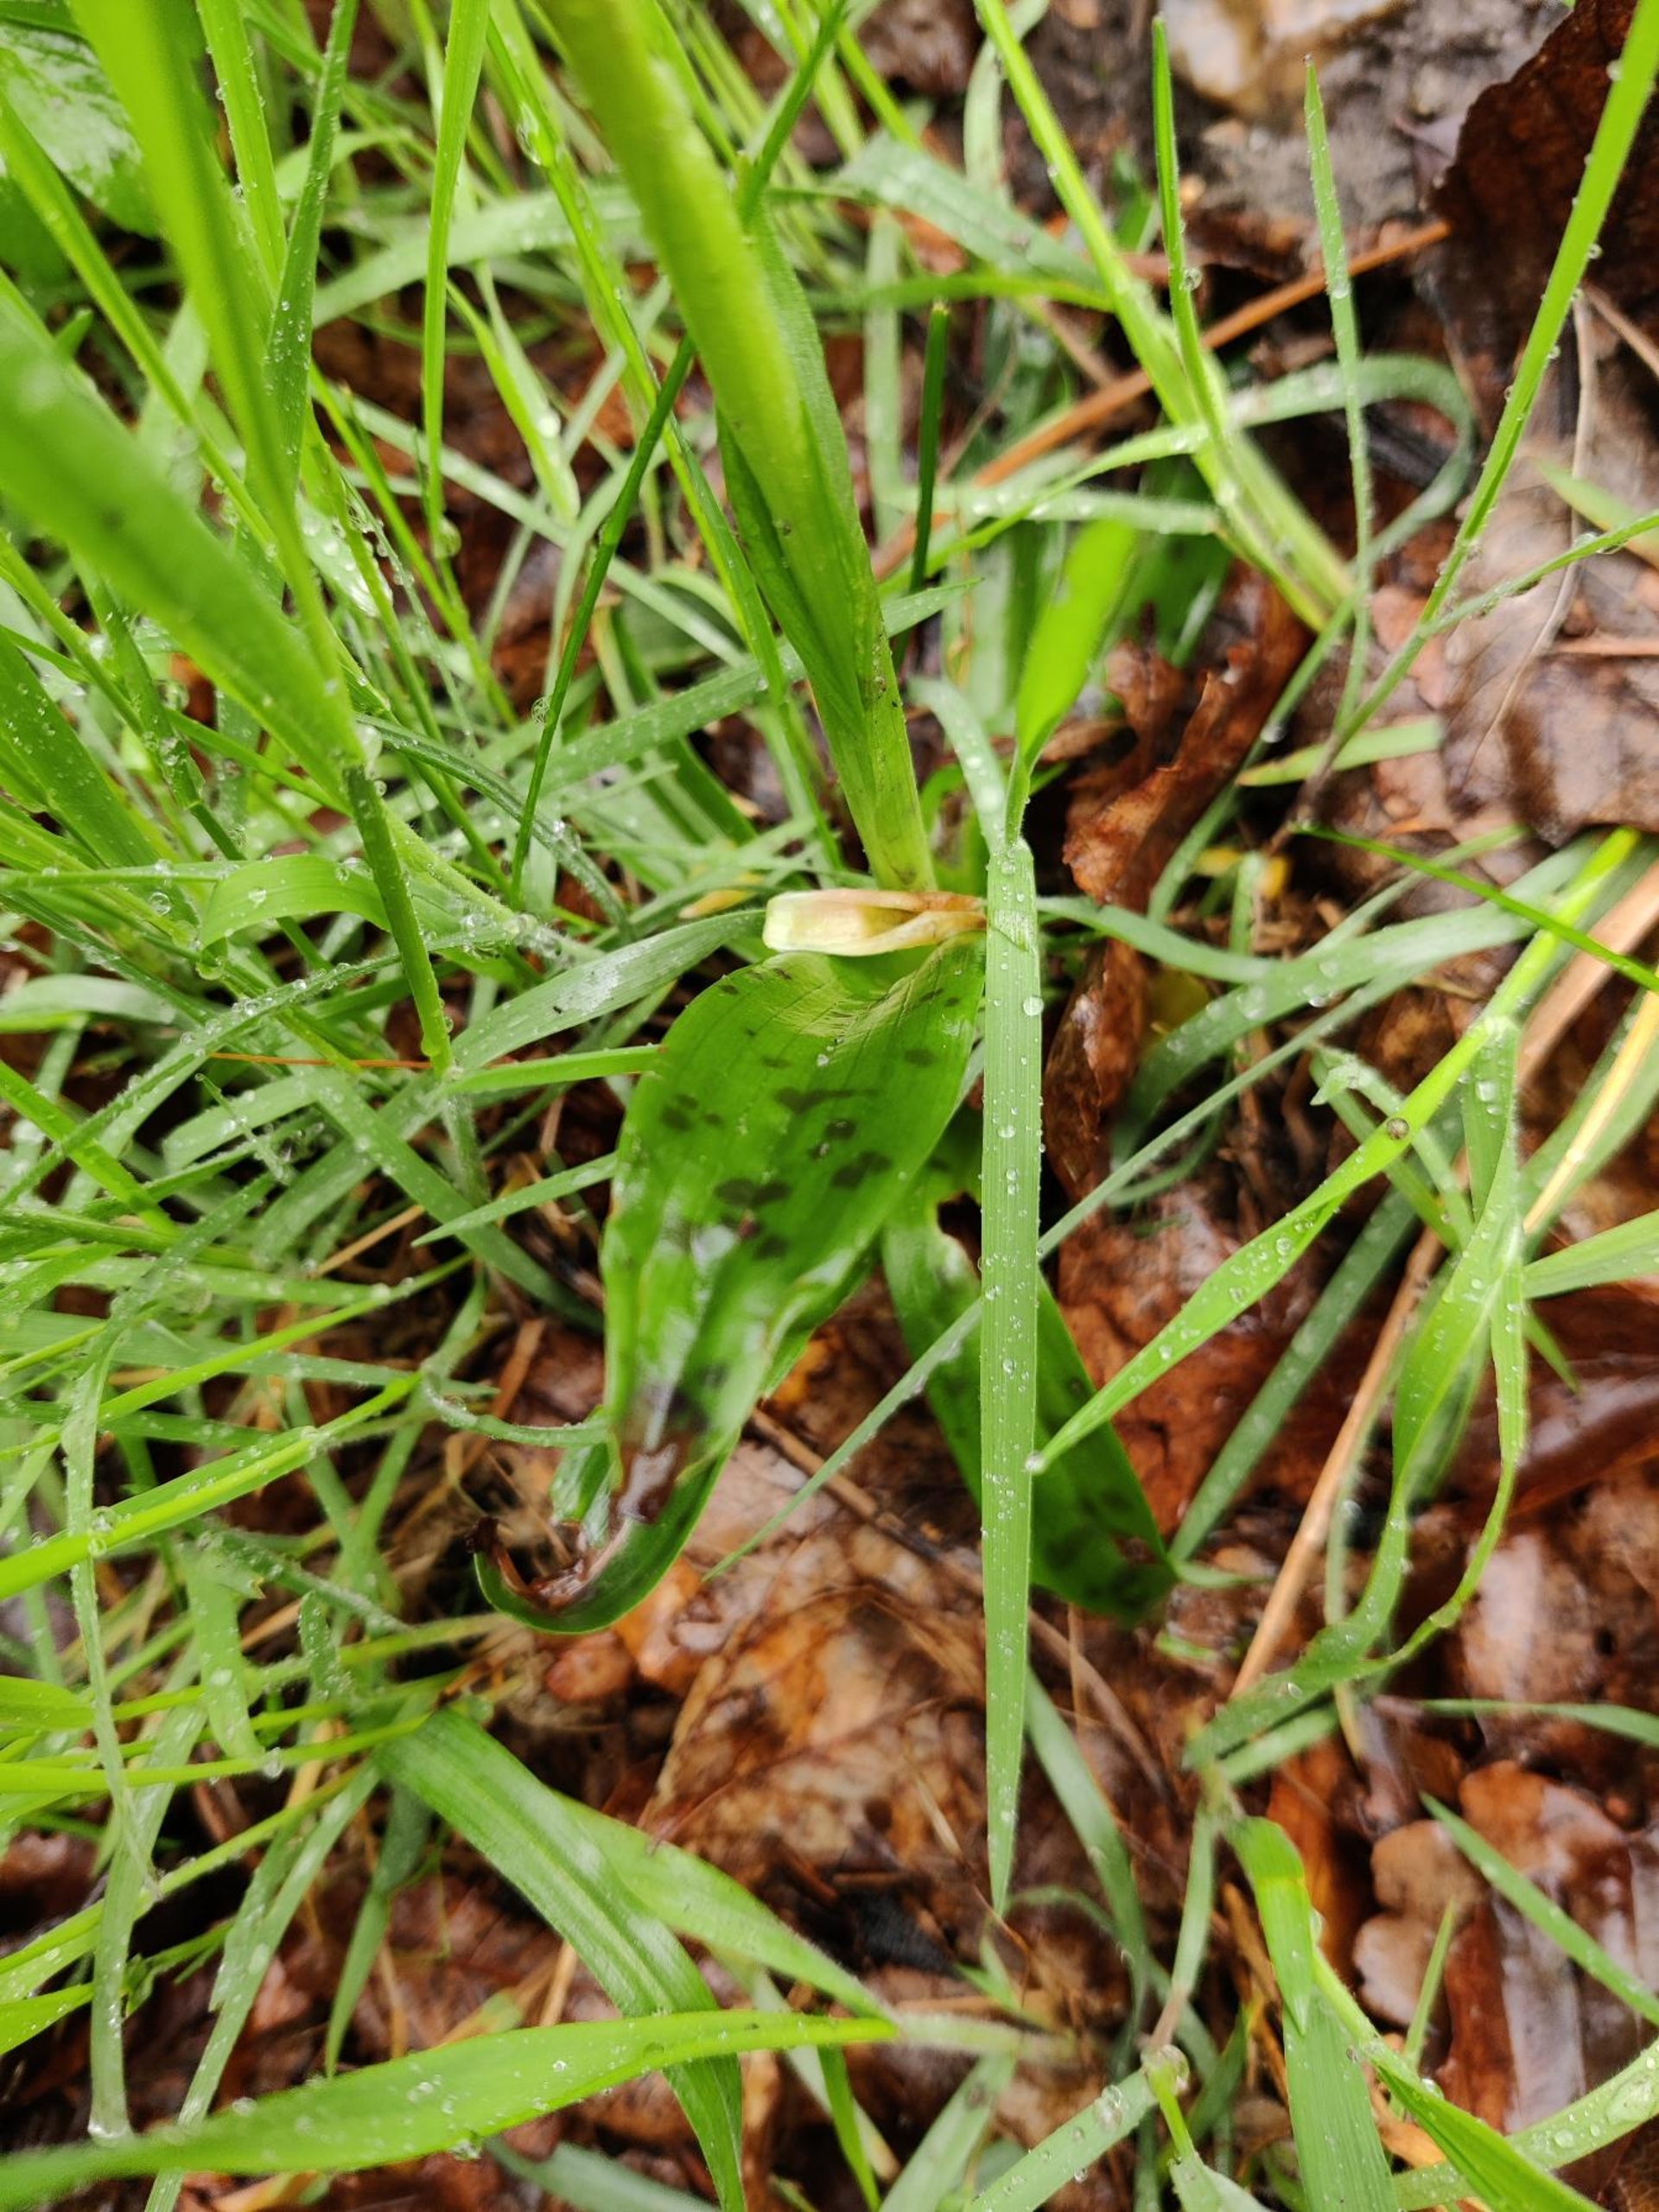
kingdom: Plantae
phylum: Tracheophyta
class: Liliopsida
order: Asparagales
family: Orchidaceae
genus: Orchis
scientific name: Orchis mascula
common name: Tyndakset gøgeurt
